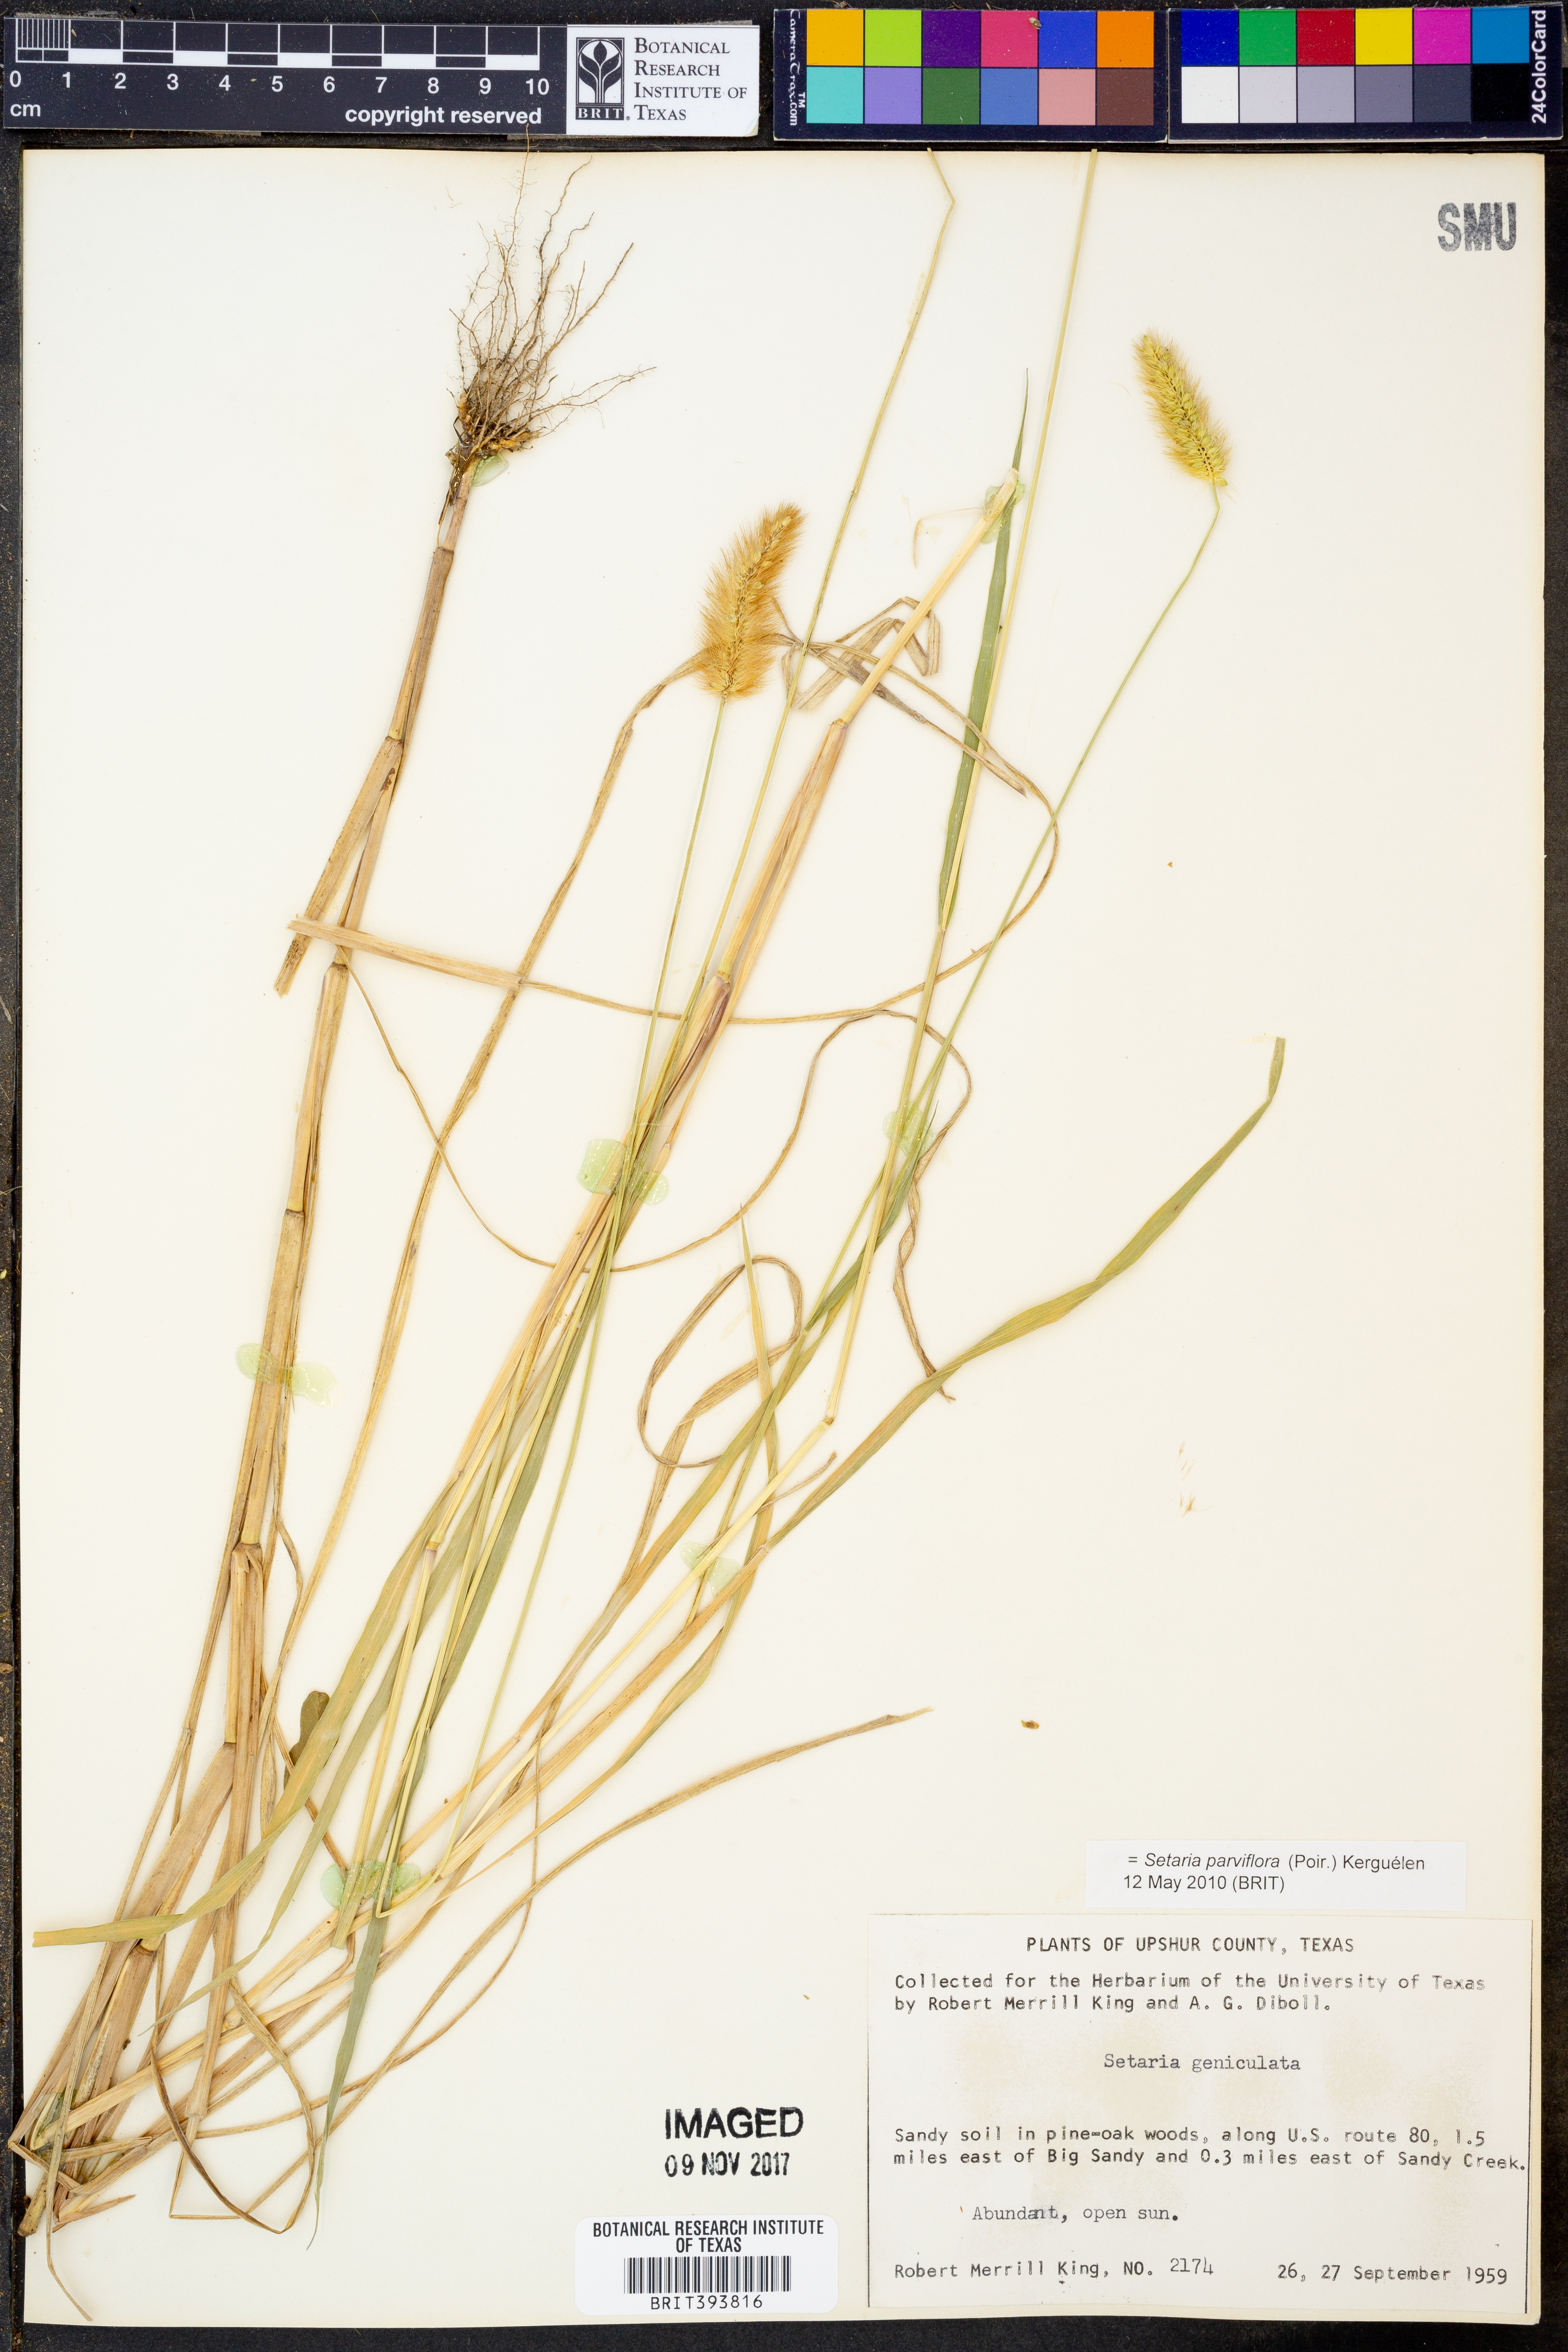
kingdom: Plantae
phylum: Tracheophyta
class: Liliopsida
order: Poales
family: Poaceae
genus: Setaria
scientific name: Setaria parviflora
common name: Knotroot bristle-grass
